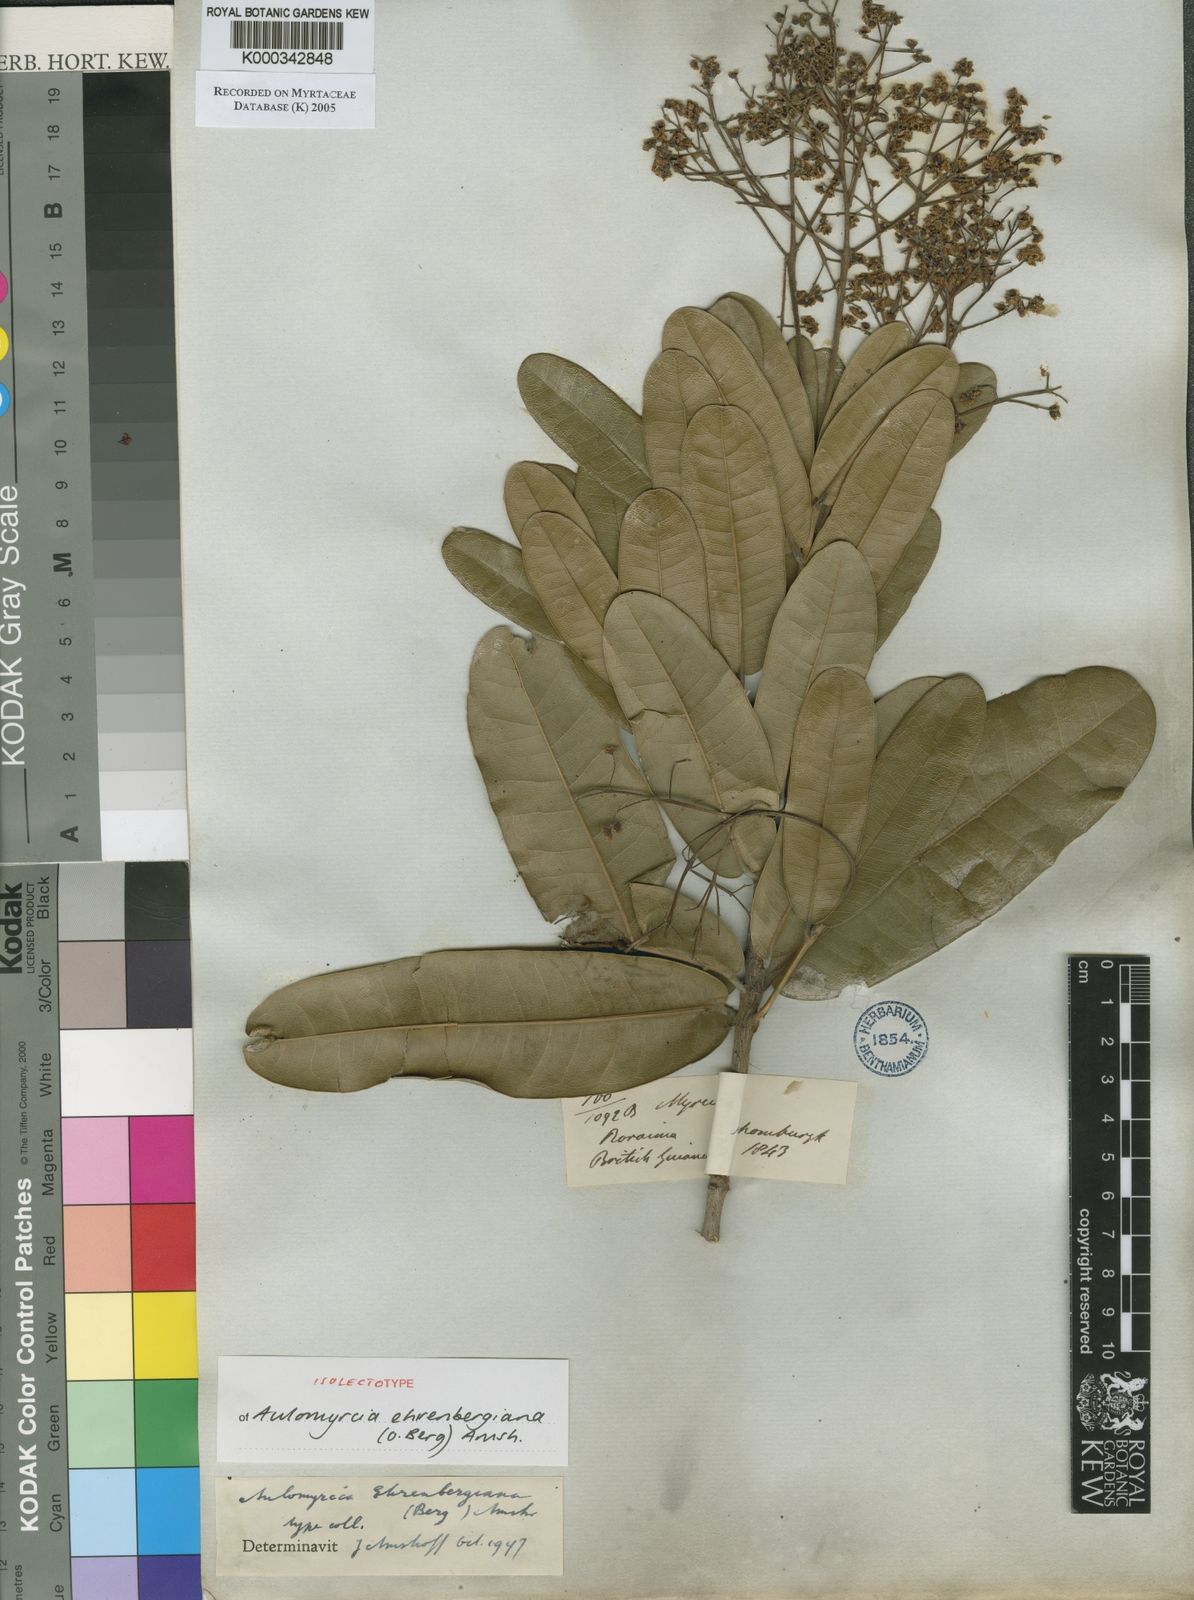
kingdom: Plantae
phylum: Tracheophyta
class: Magnoliopsida
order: Myrtales
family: Myrtaceae
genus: Myrcia
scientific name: Myrcia ehrenbergiana
